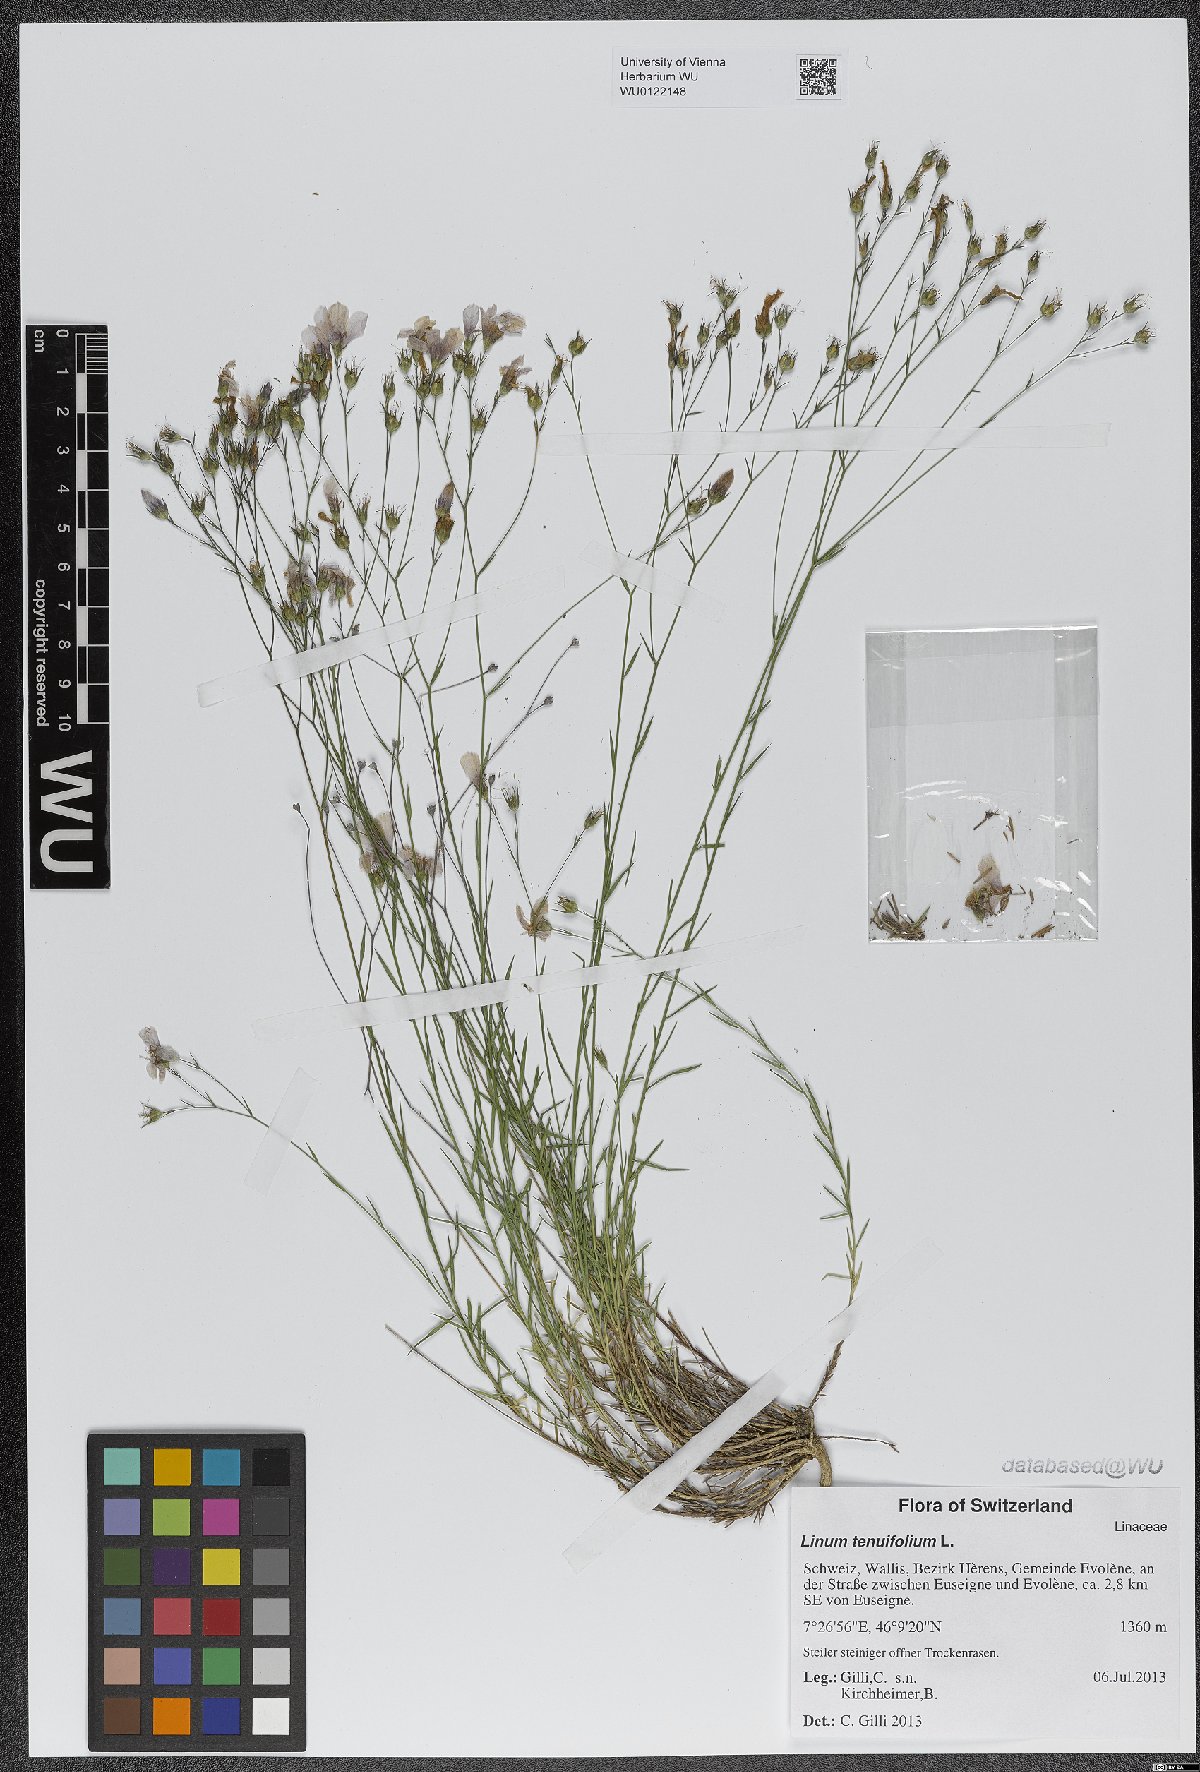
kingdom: Plantae
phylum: Tracheophyta
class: Magnoliopsida
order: Malpighiales
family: Linaceae
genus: Linum
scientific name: Linum tenuifolium
